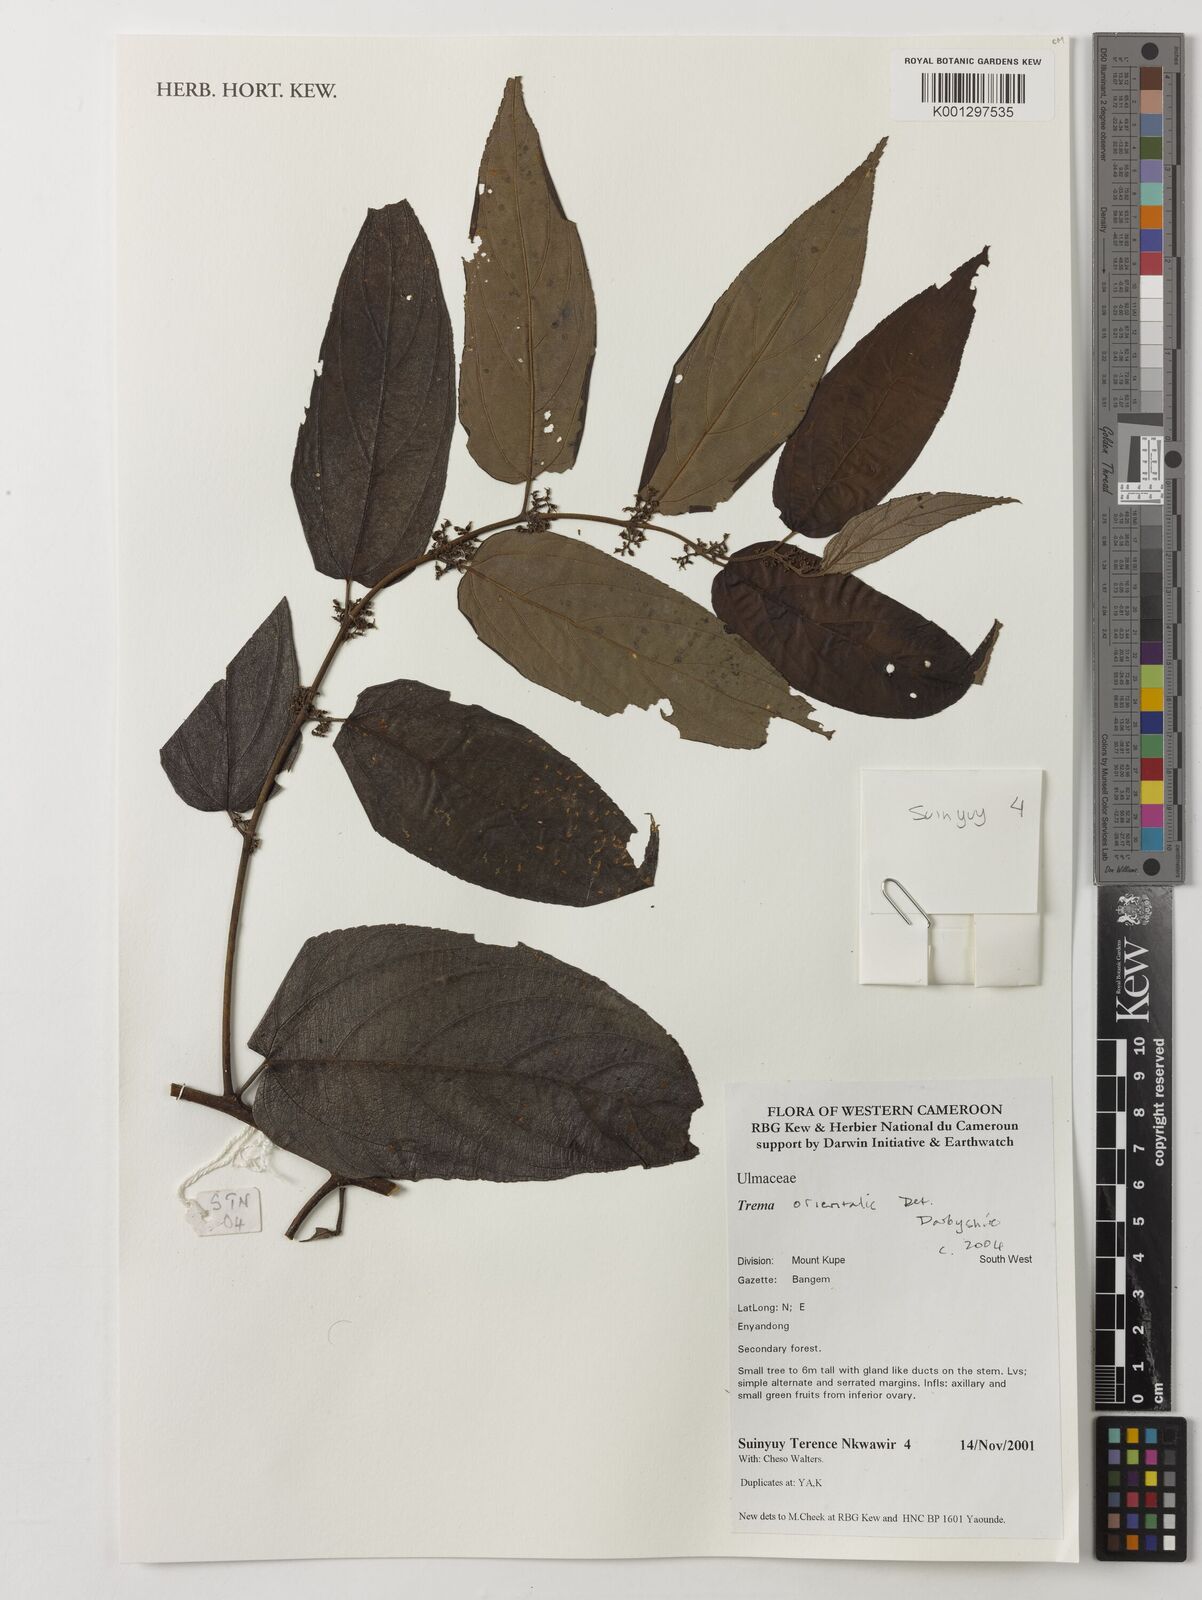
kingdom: Plantae
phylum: Tracheophyta
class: Magnoliopsida
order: Rosales
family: Cannabaceae
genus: Trema
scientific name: Trema orientale
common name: Indian charcoal tree
